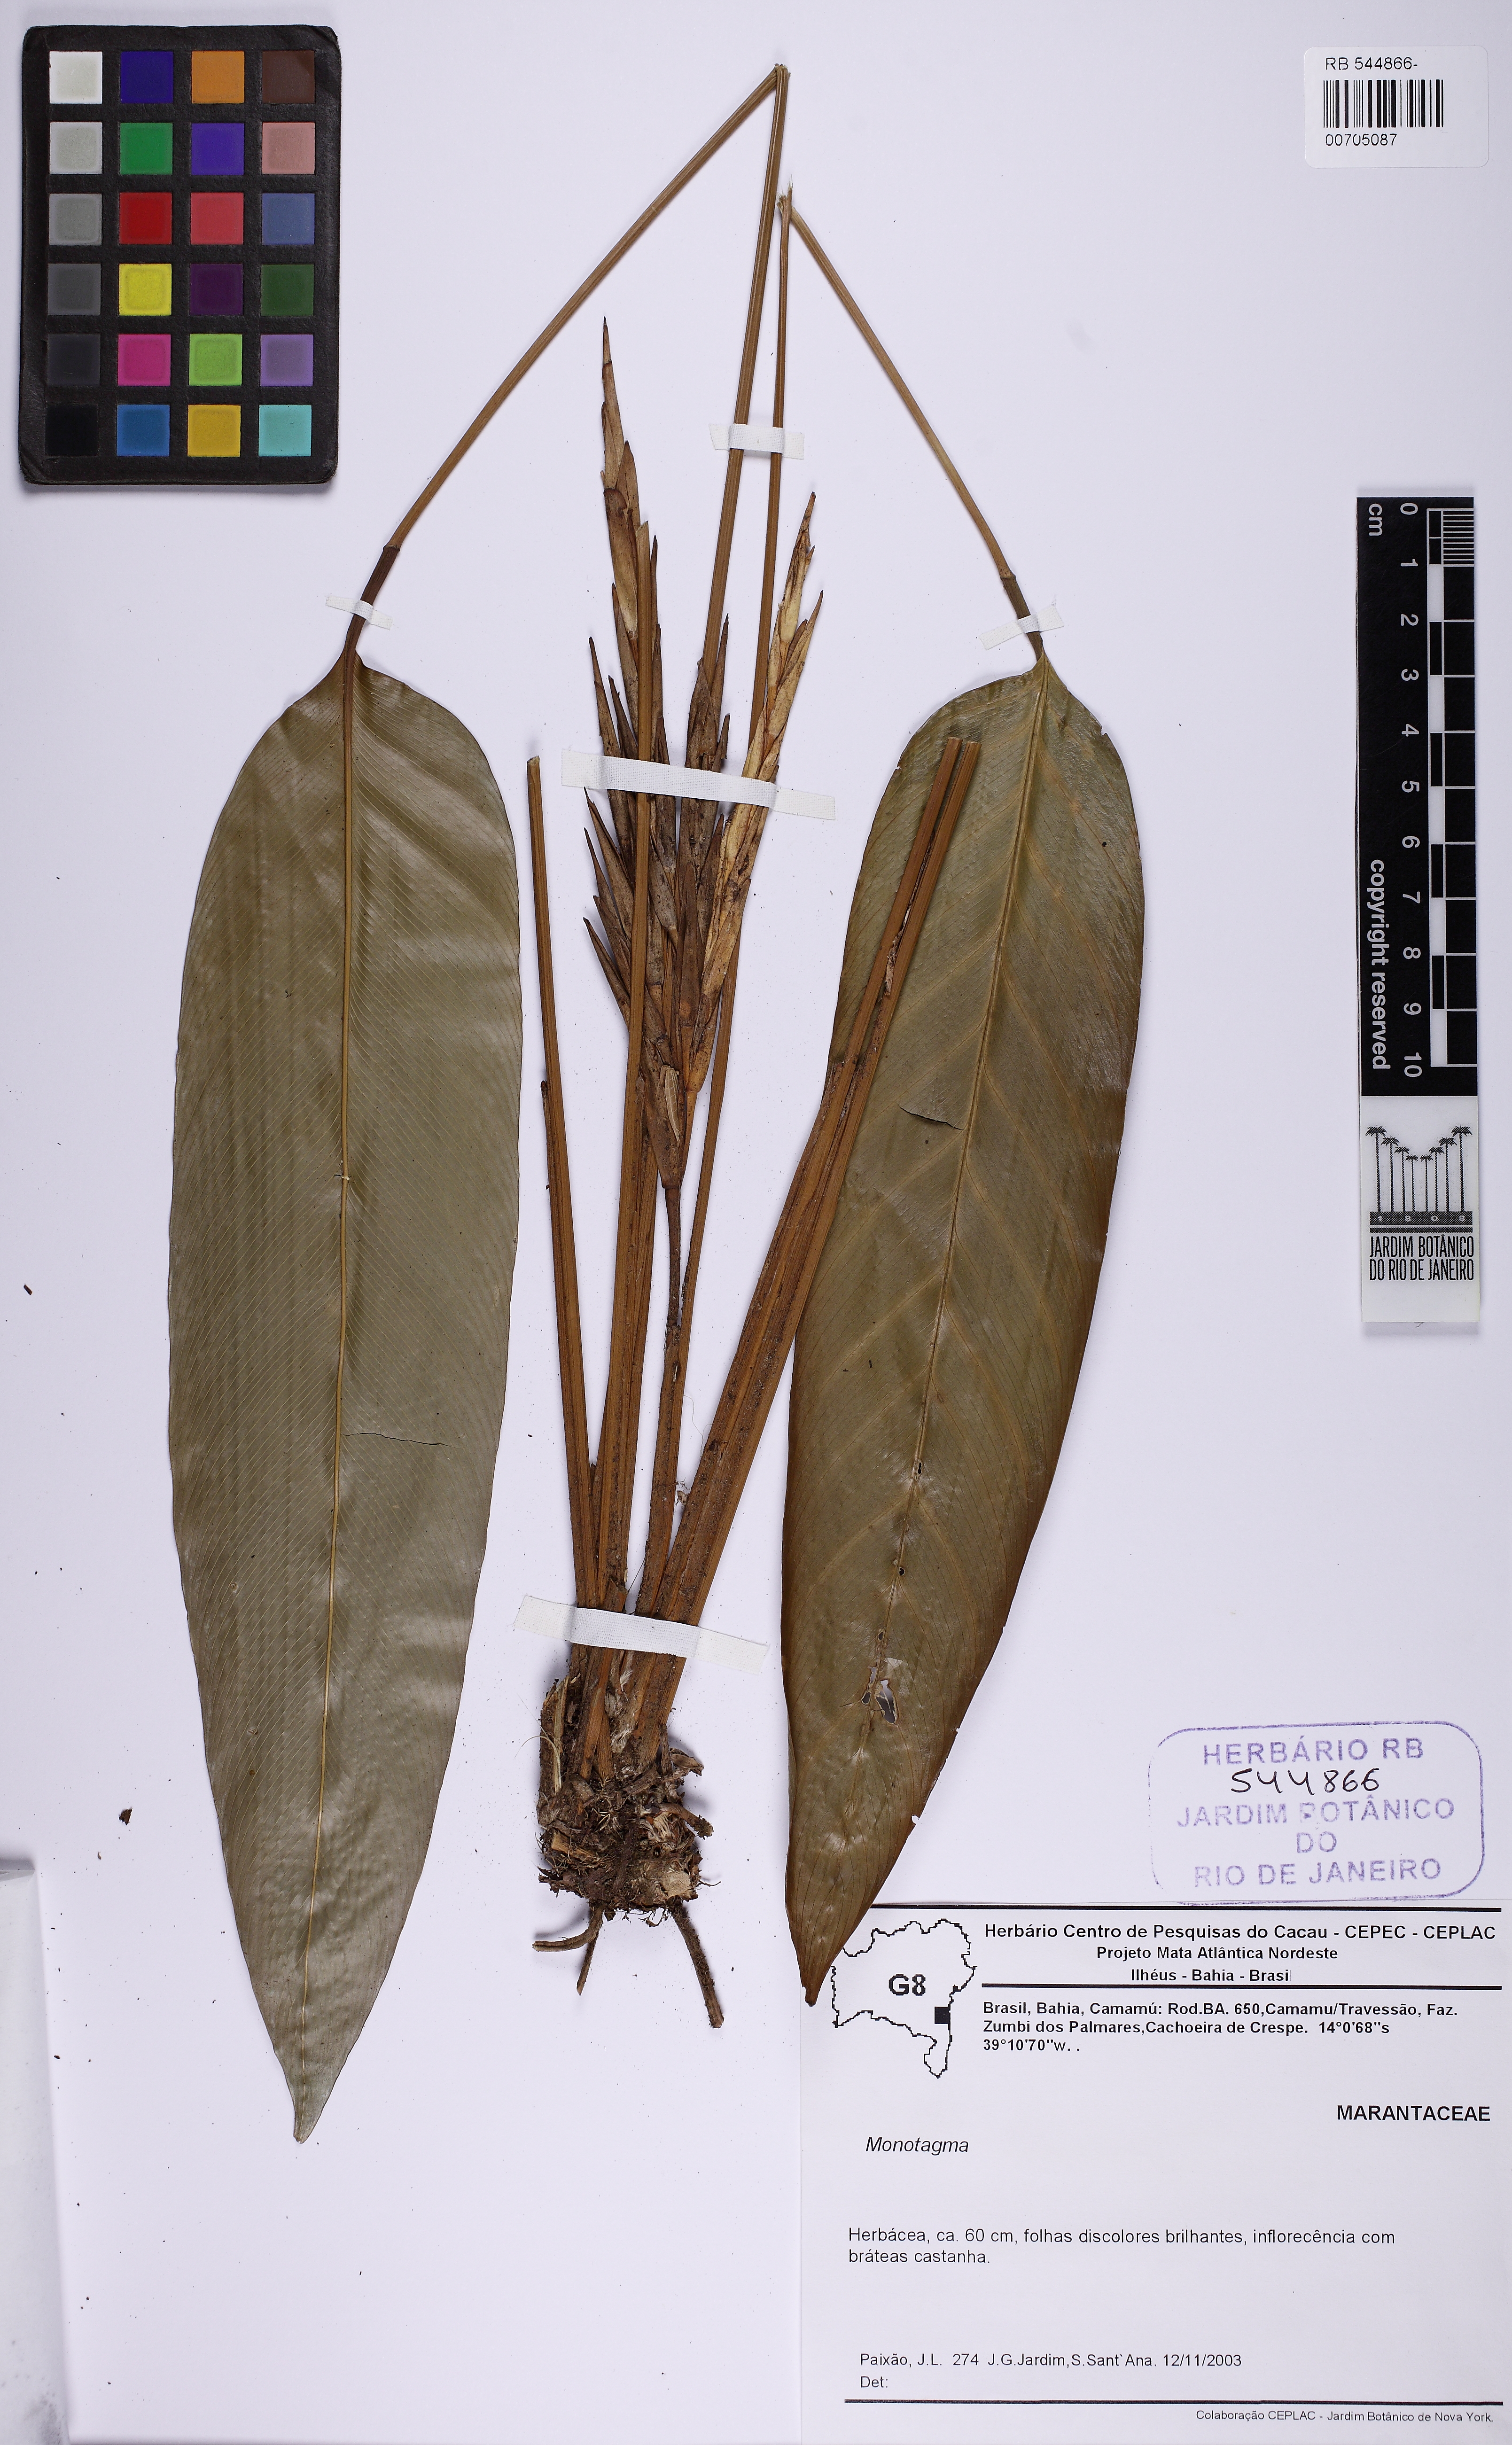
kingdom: Plantae
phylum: Tracheophyta
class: Liliopsida
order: Zingiberales
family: Marantaceae
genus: Monotagma
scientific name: Monotagma
